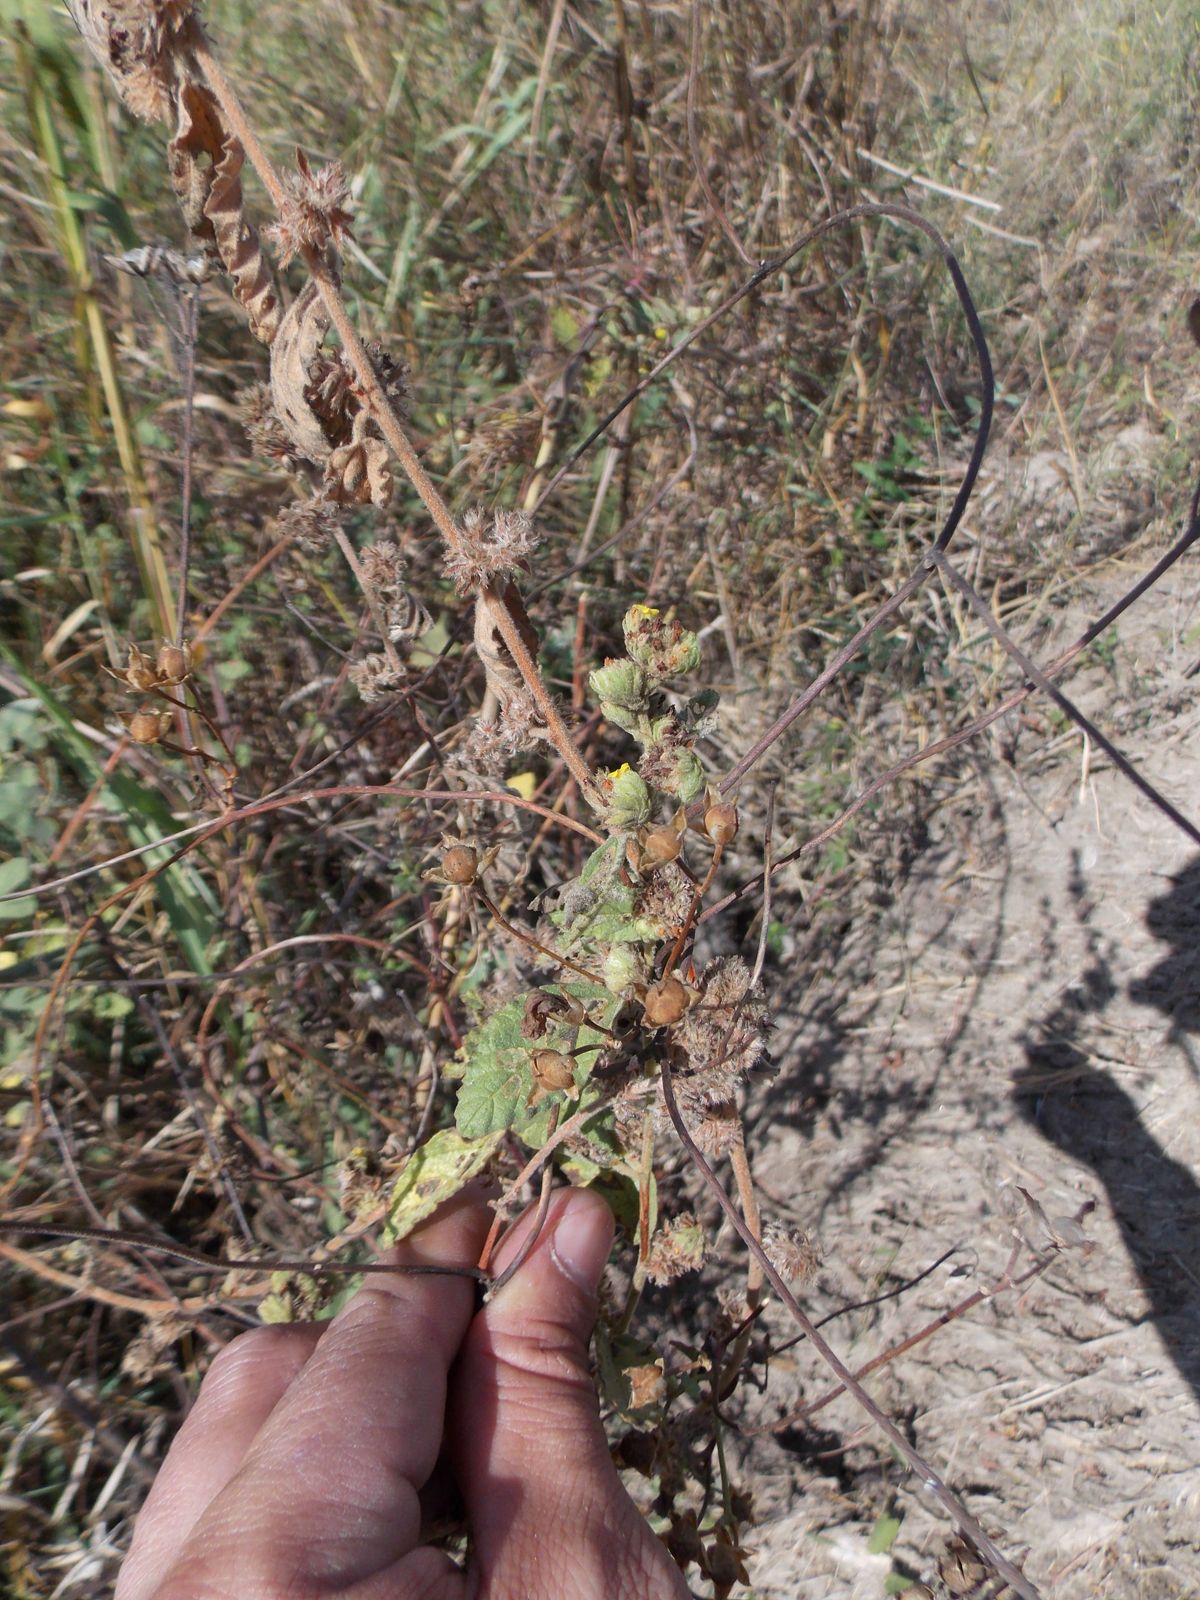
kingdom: Plantae
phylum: Tracheophyta
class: Magnoliopsida
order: Malvales
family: Malvaceae
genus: Waltheria
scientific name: Waltheria indica
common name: Leather-coat
